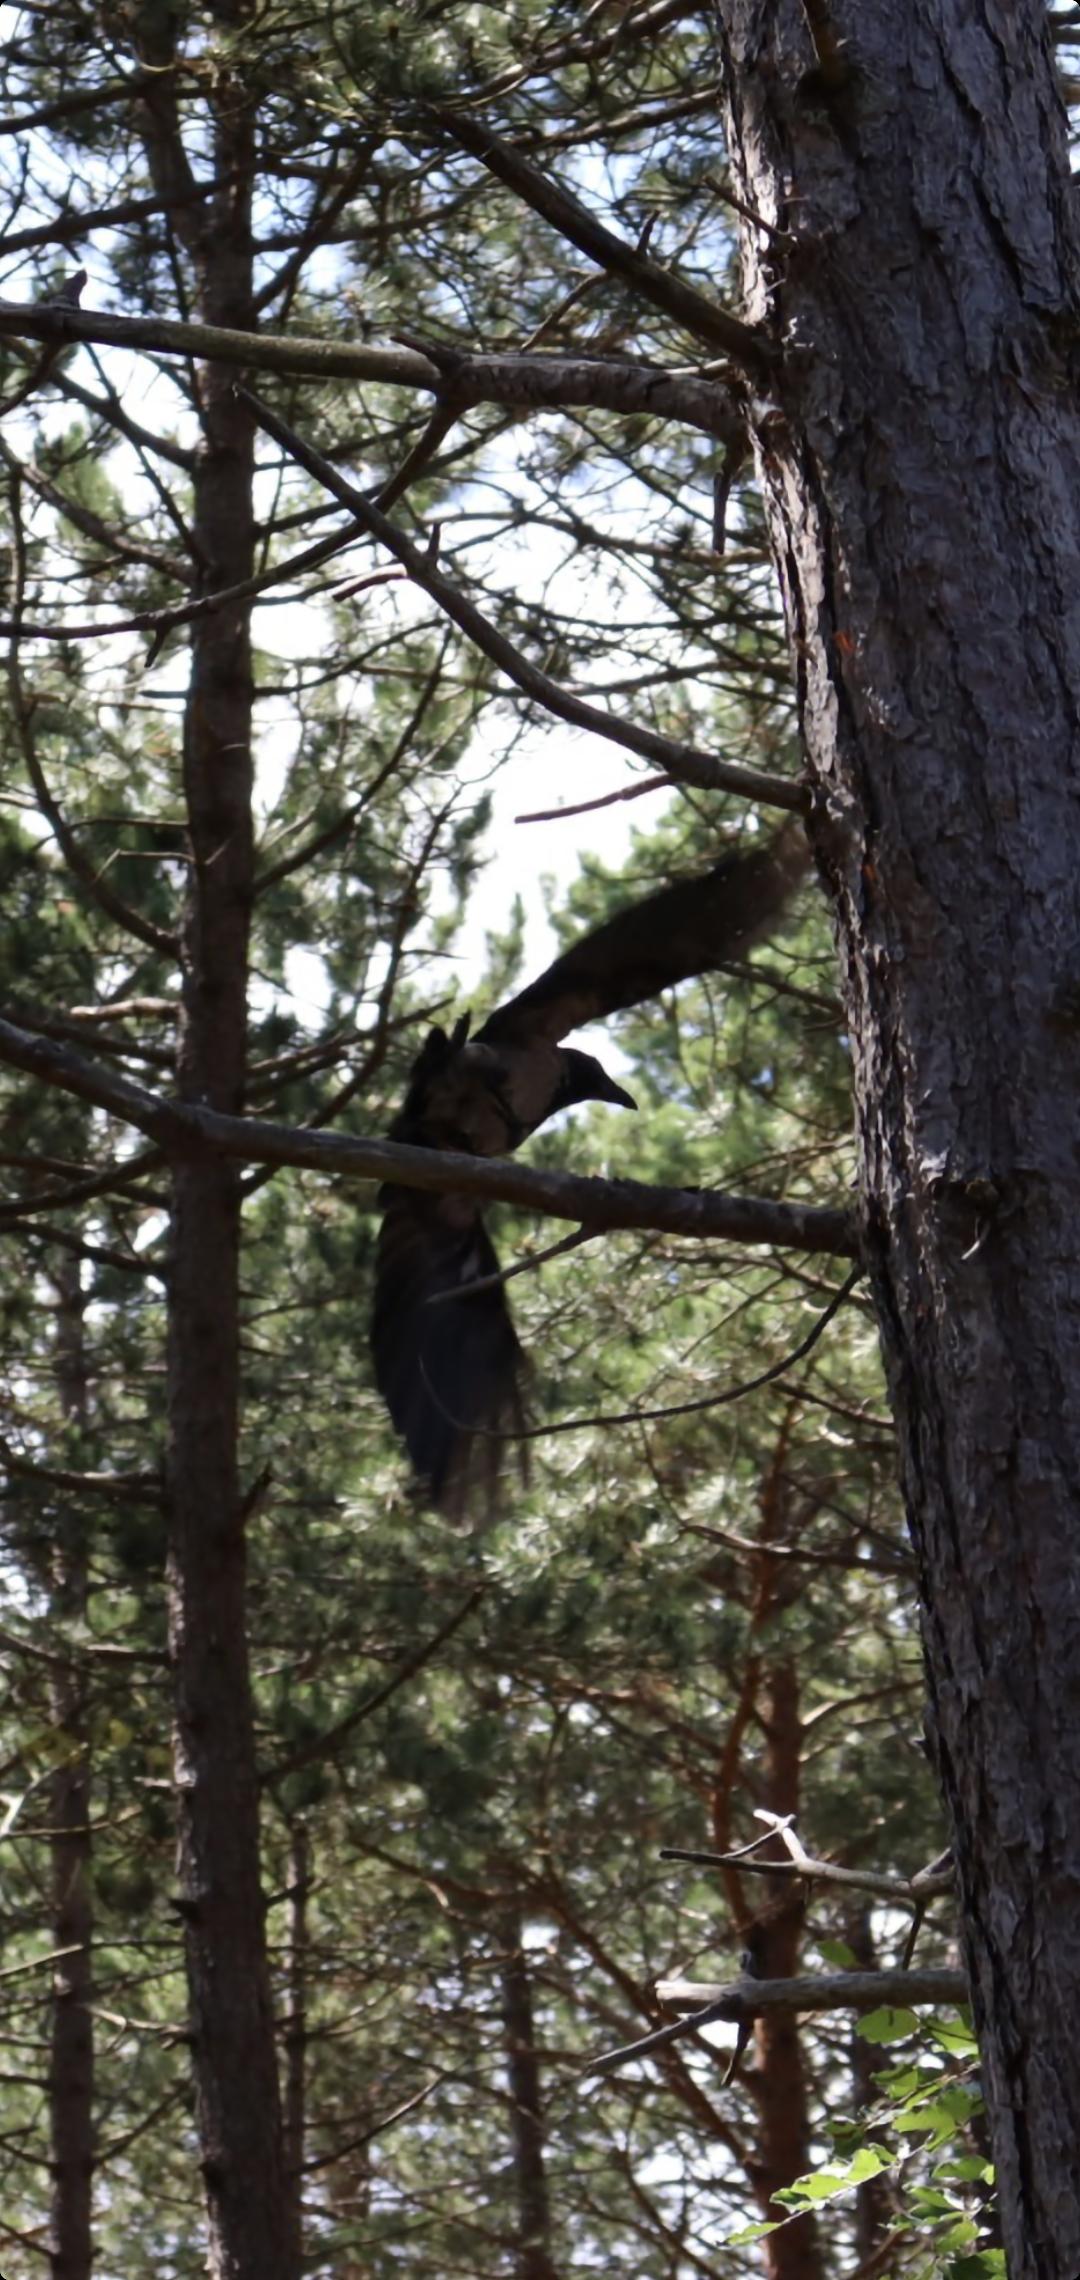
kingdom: Animalia
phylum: Chordata
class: Aves
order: Passeriformes
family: Corvidae
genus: Corvus
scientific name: Corvus cornix
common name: Gråkrage
